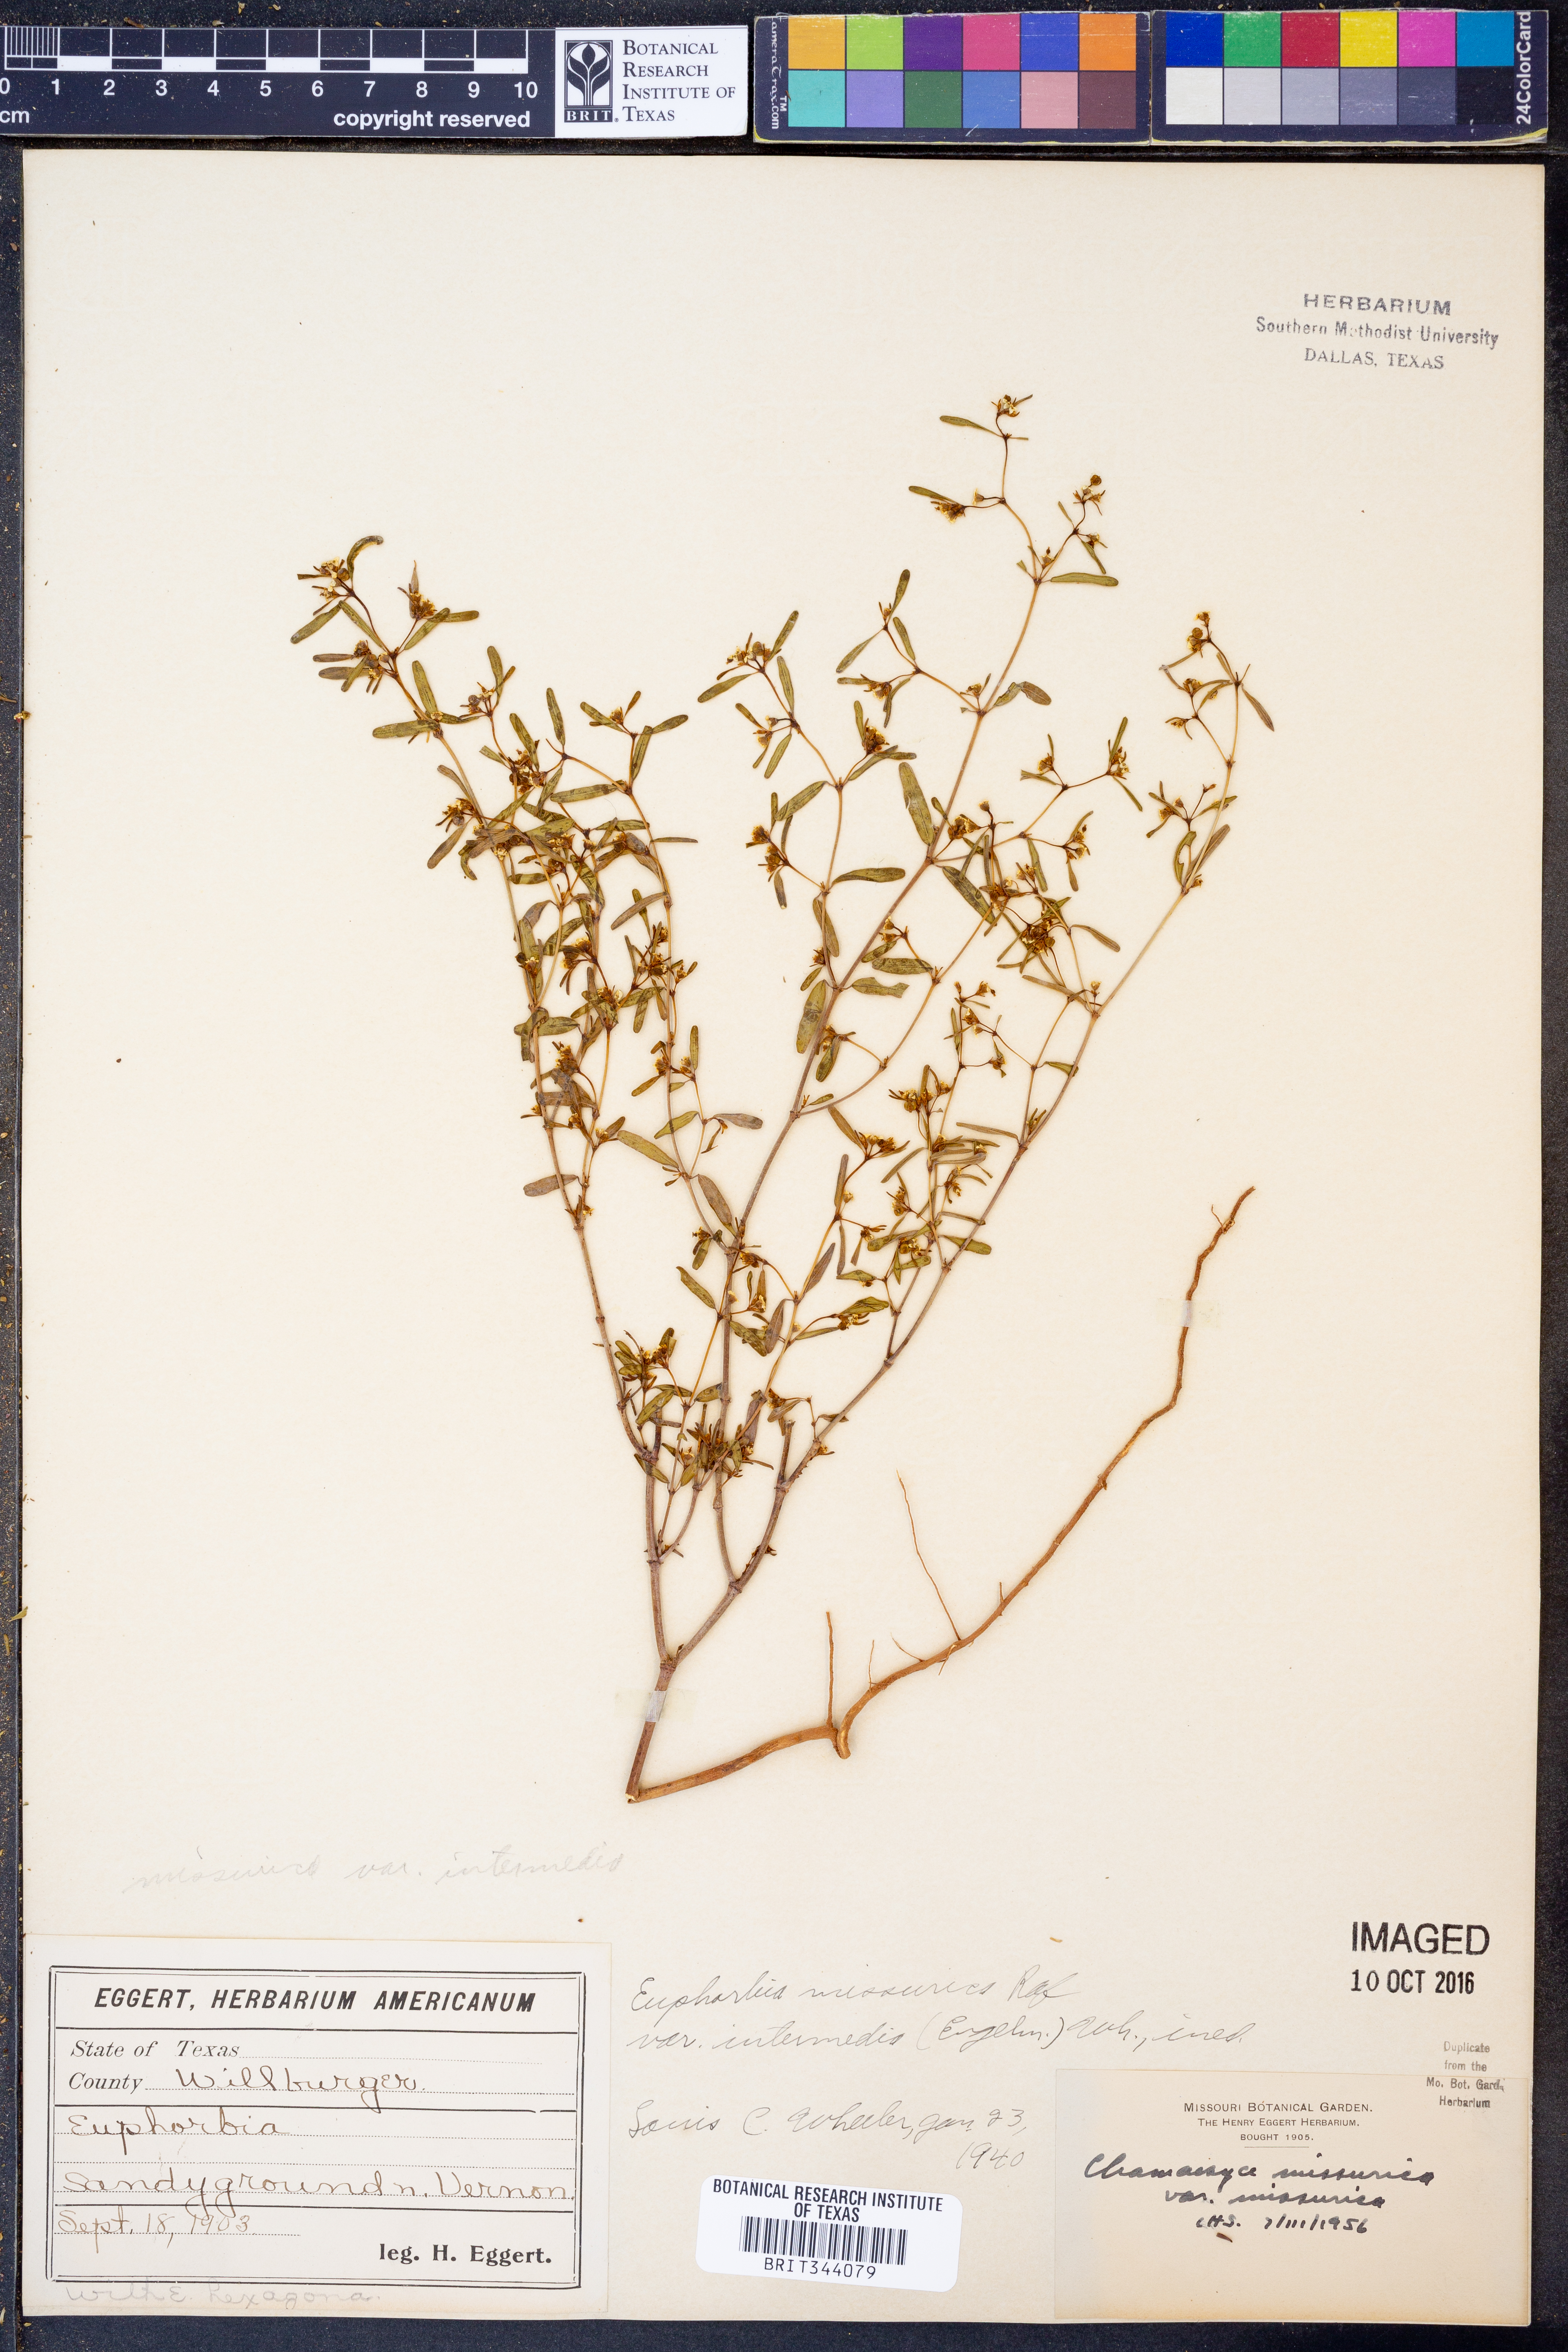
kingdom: Plantae
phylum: Tracheophyta
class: Magnoliopsida
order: Malpighiales
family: Euphorbiaceae
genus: Euphorbia
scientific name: Euphorbia missurica
